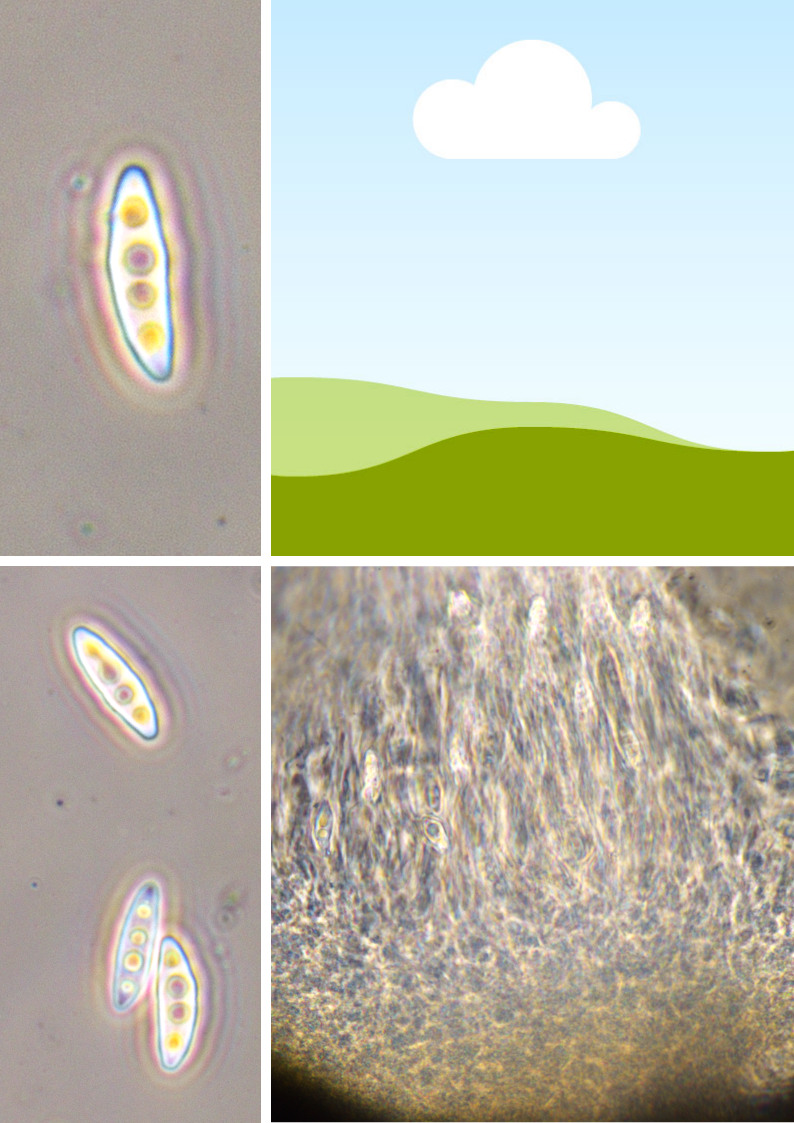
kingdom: Fungi
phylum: Ascomycota
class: Dothideomycetes
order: Pleosporales
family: Lophiostomataceae
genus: Lophiostoma
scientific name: Lophiostoma nucula
